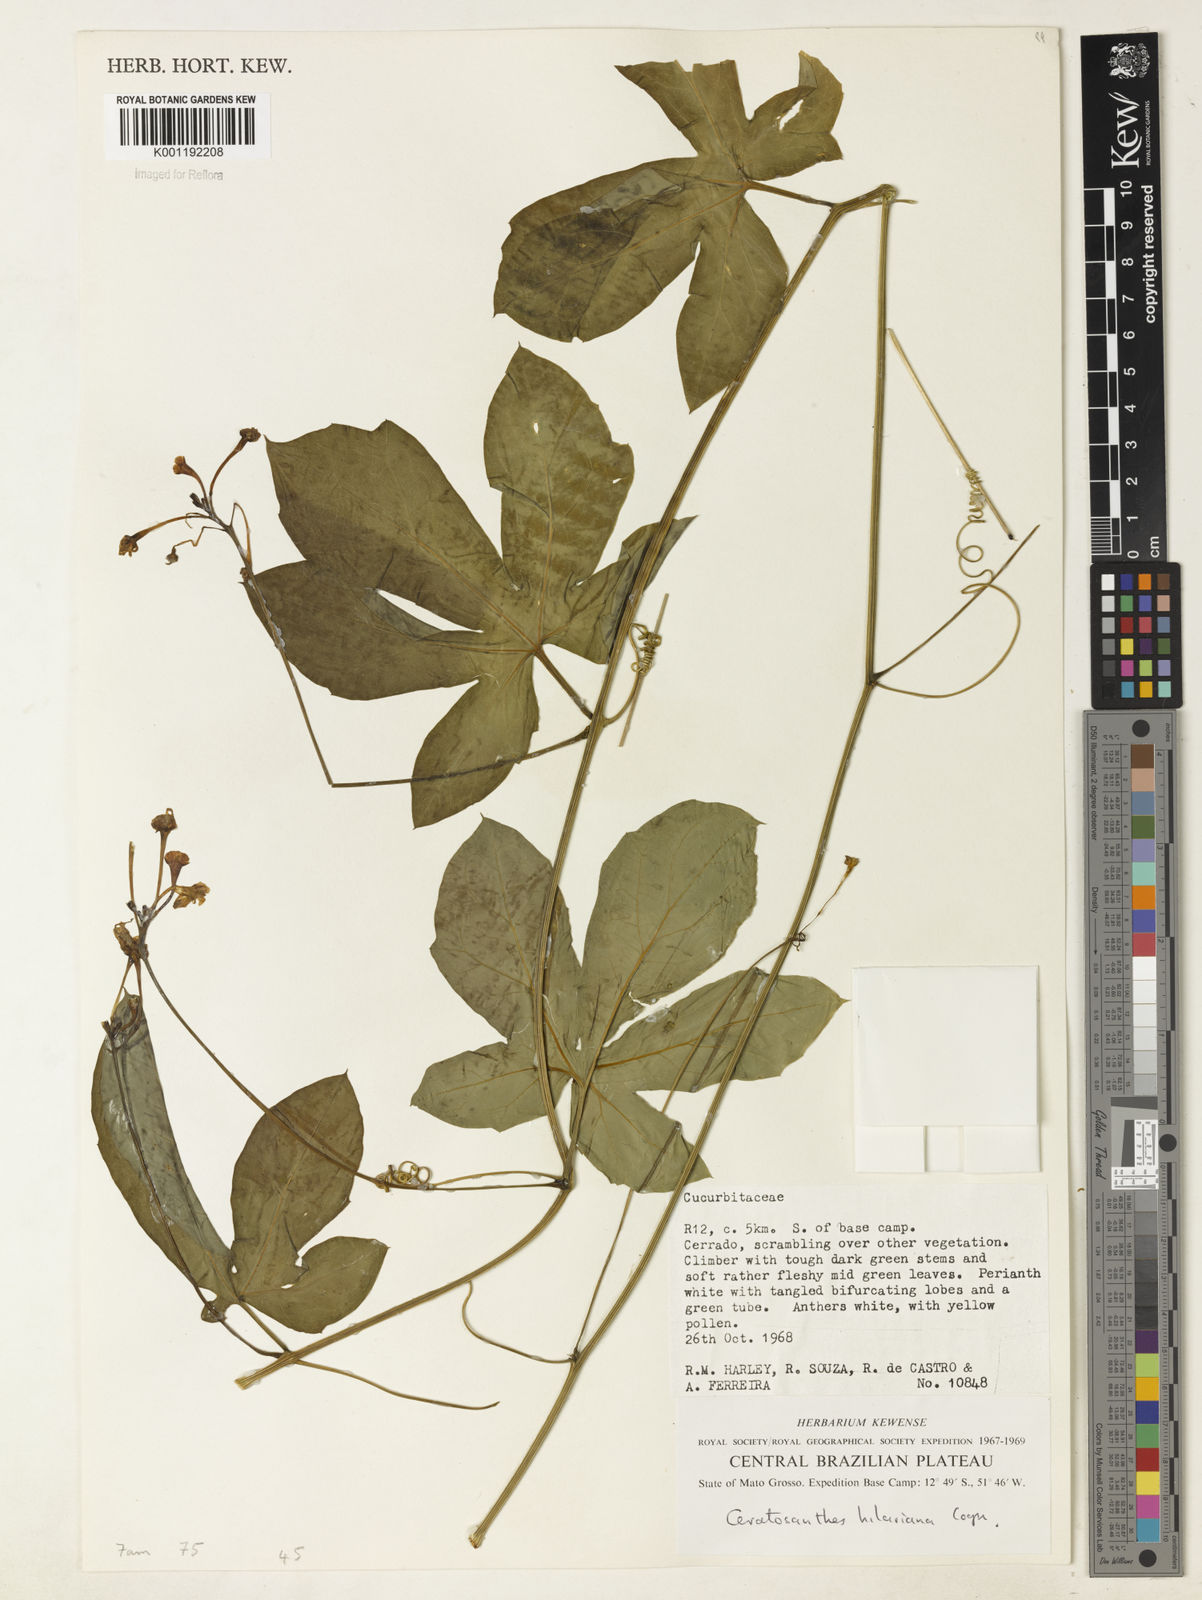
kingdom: Plantae
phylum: Tracheophyta
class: Magnoliopsida
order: Cucurbitales
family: Cucurbitaceae
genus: Ceratosanthes
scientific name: Ceratosanthes hilariana
